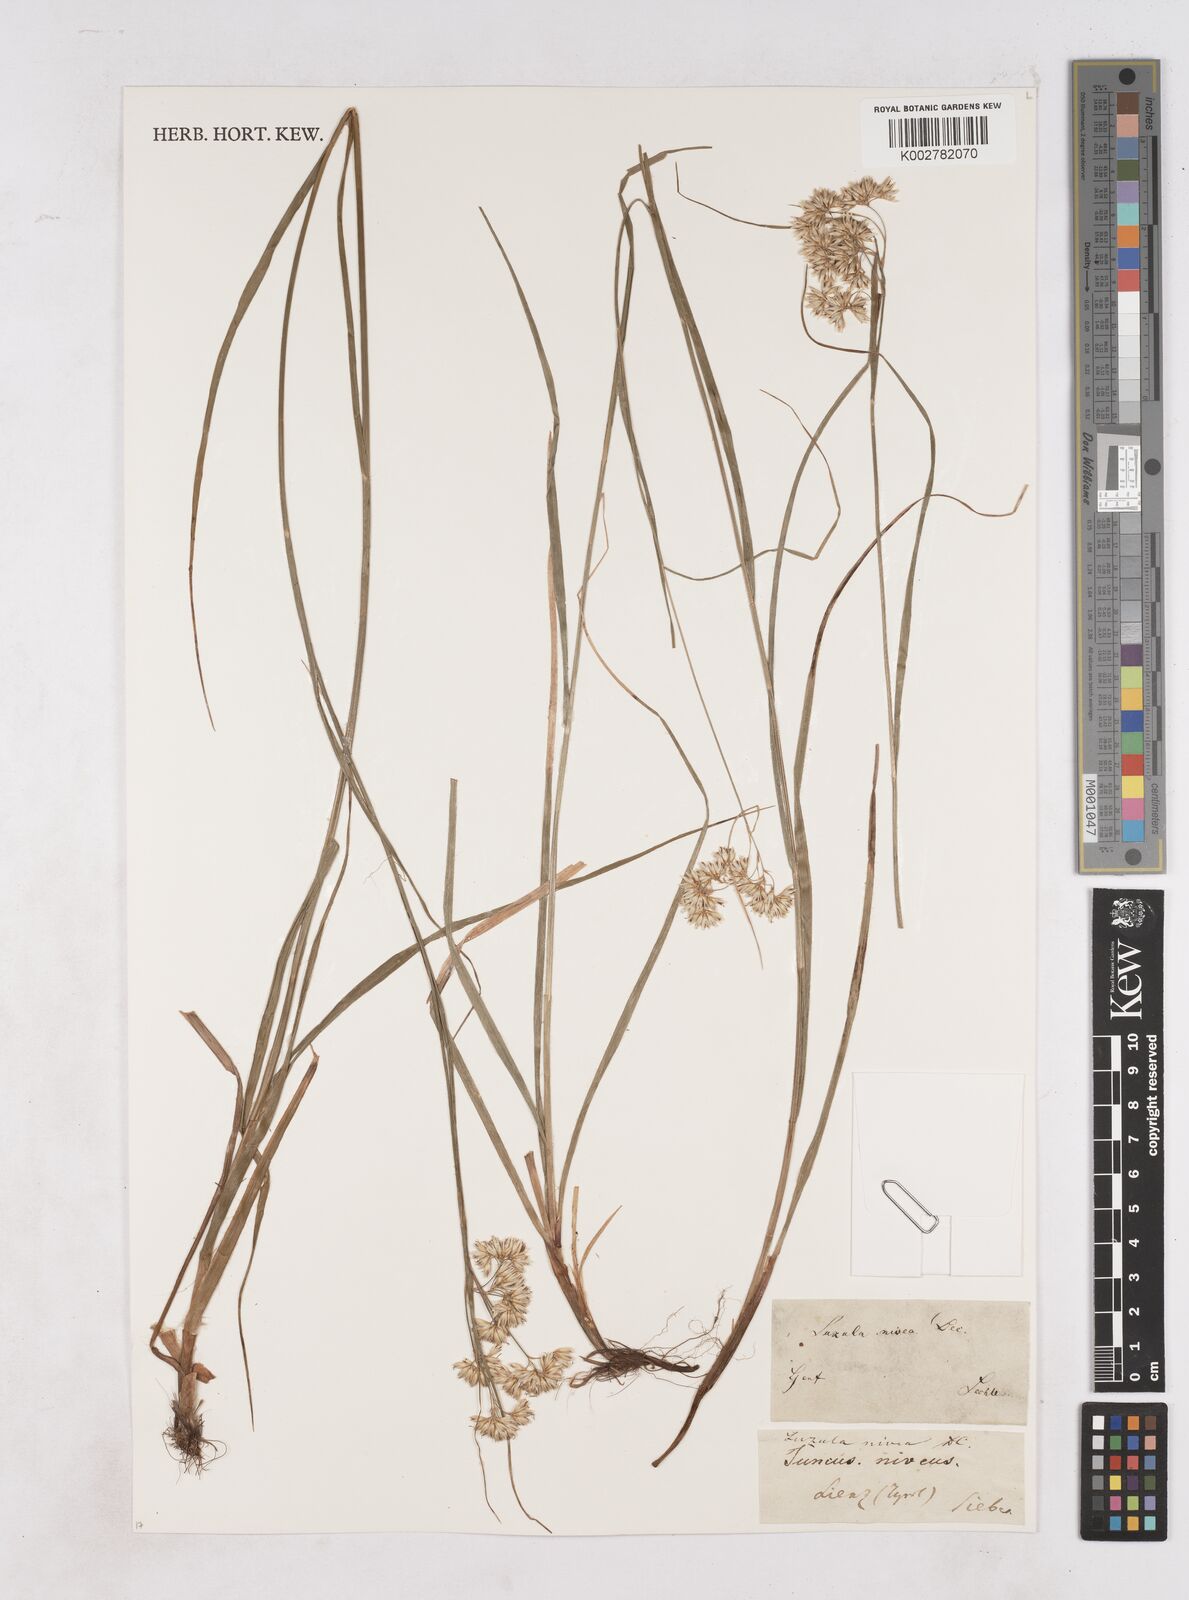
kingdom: Plantae
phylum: Tracheophyta
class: Liliopsida
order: Poales
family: Juncaceae
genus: Luzula
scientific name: Luzula nivea
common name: Snow-white wood-rush
